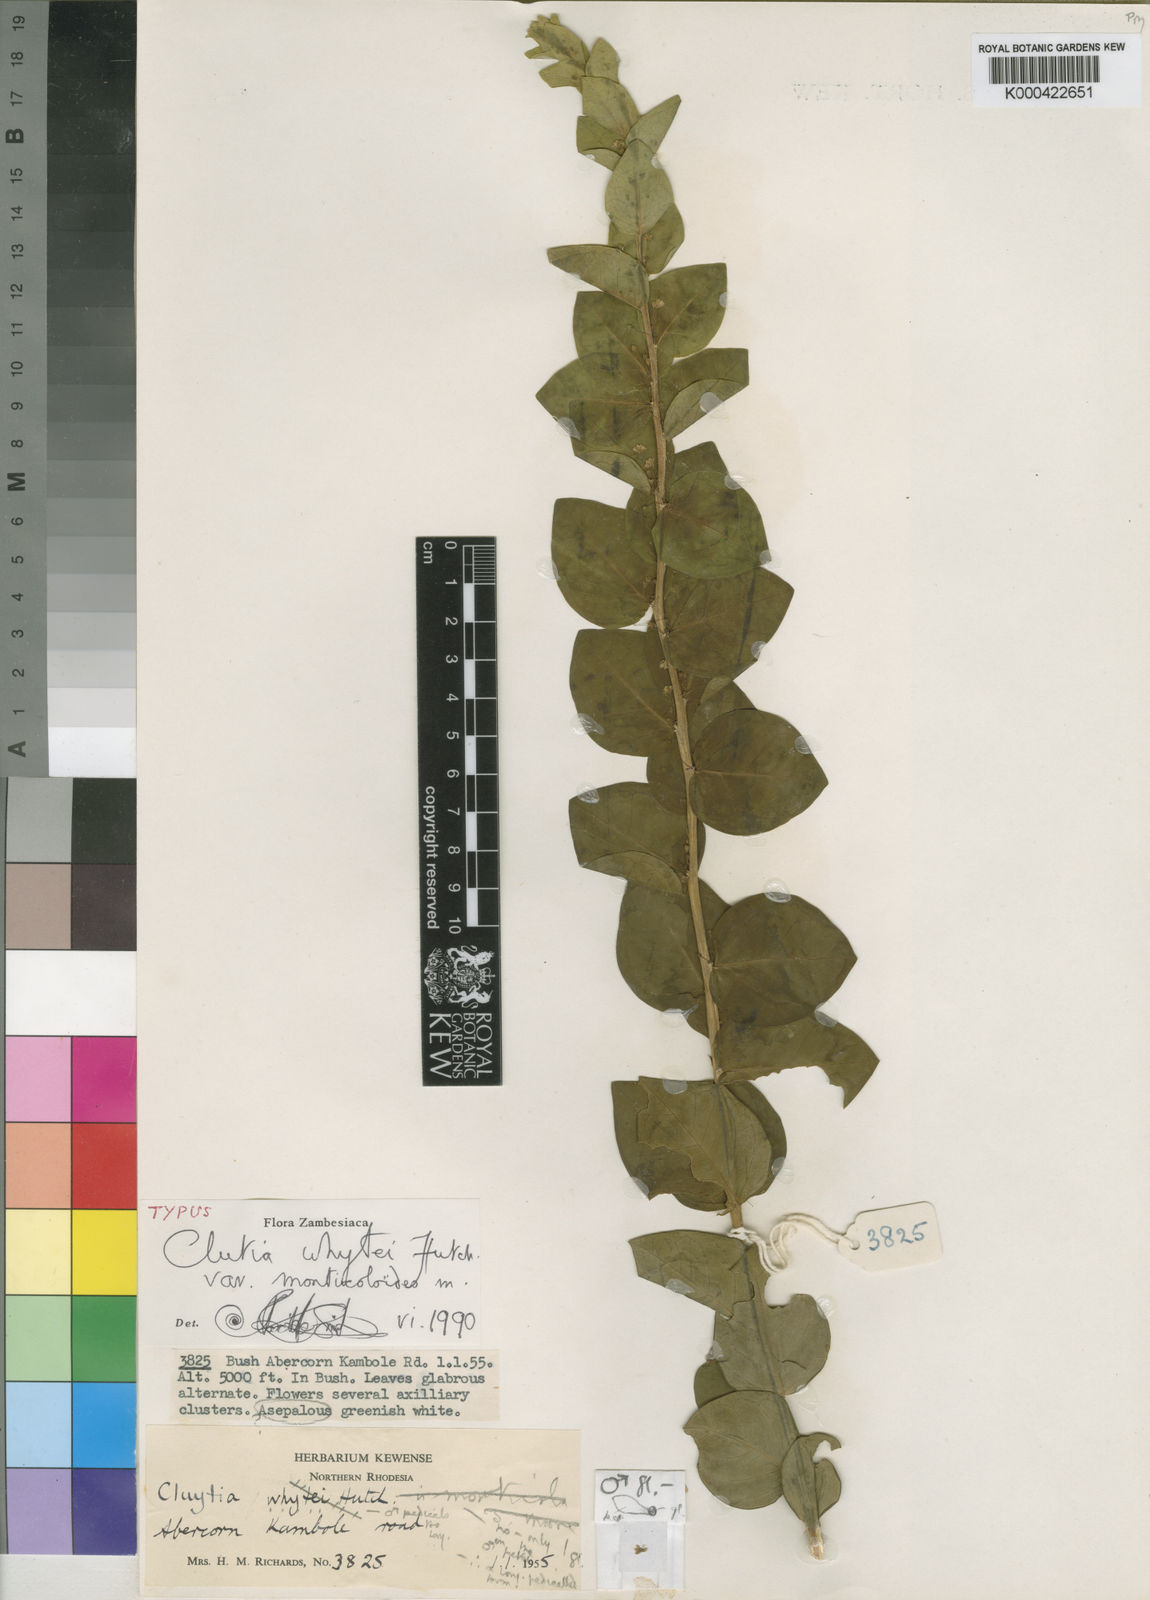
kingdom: Plantae
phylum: Tracheophyta
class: Magnoliopsida
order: Malpighiales
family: Peraceae
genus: Clutia
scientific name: Clutia whytei
